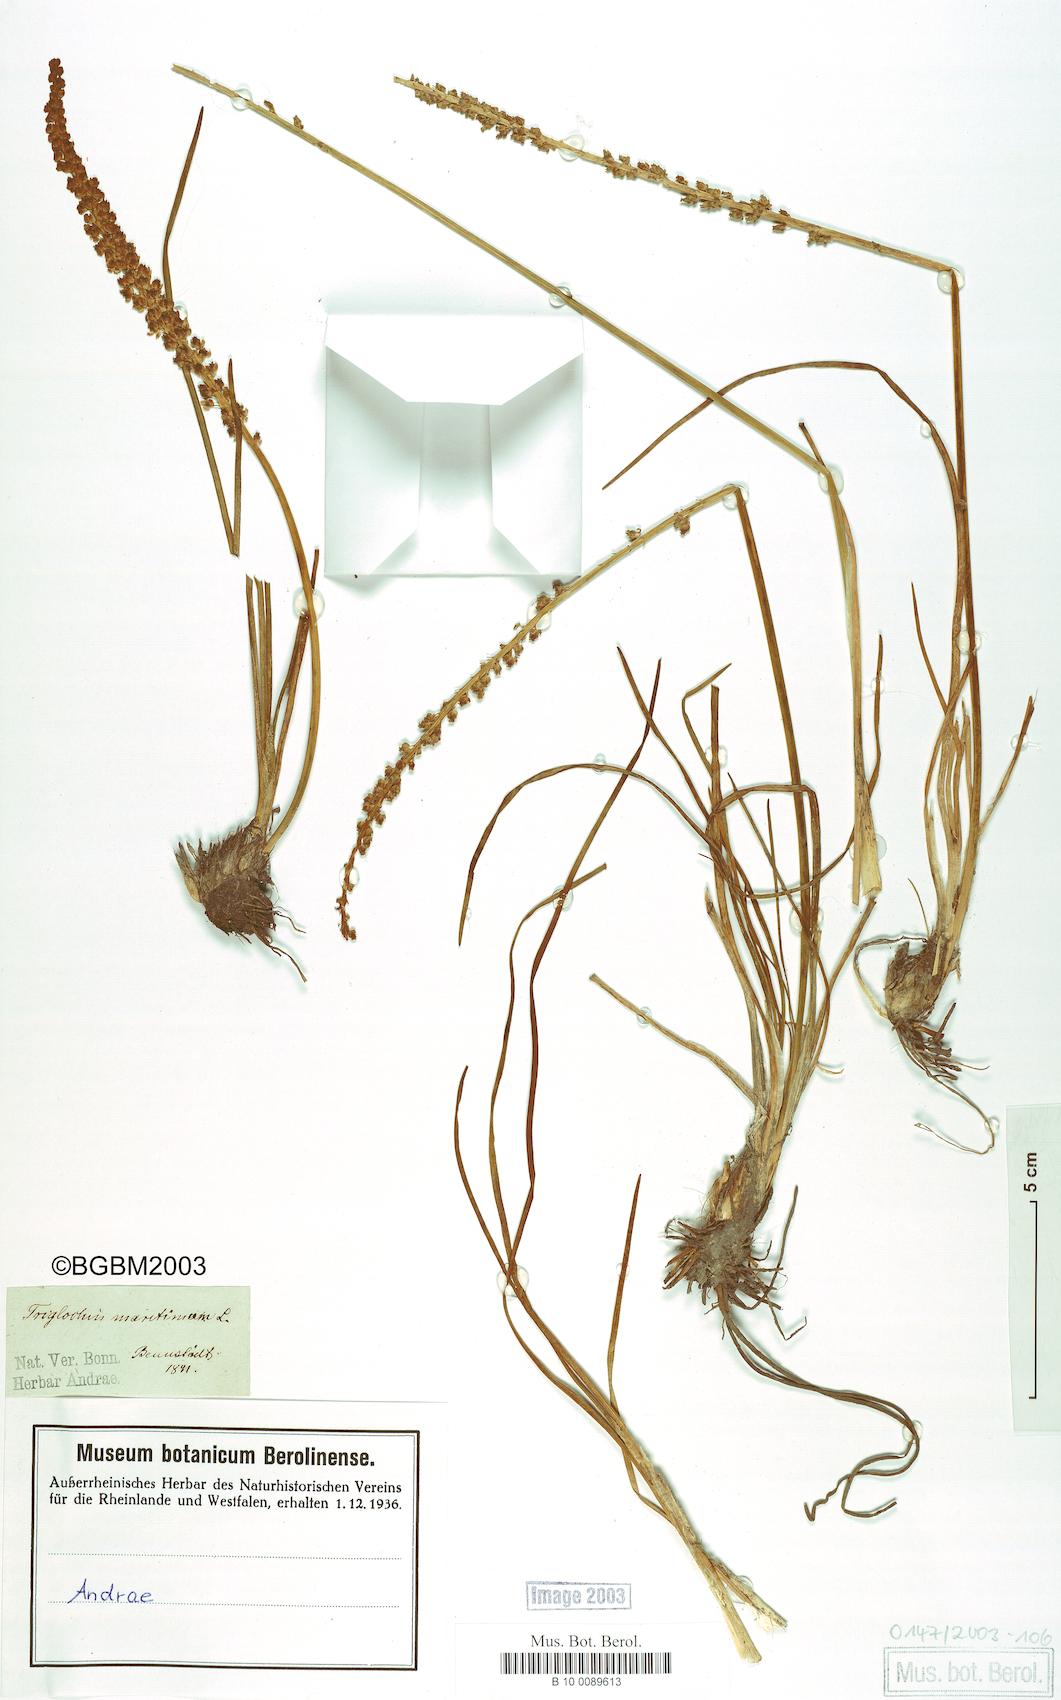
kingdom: Plantae
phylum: Tracheophyta
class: Liliopsida
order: Alismatales
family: Juncaginaceae
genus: Triglochin
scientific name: Triglochin maritima
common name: Sea arrowgrass
